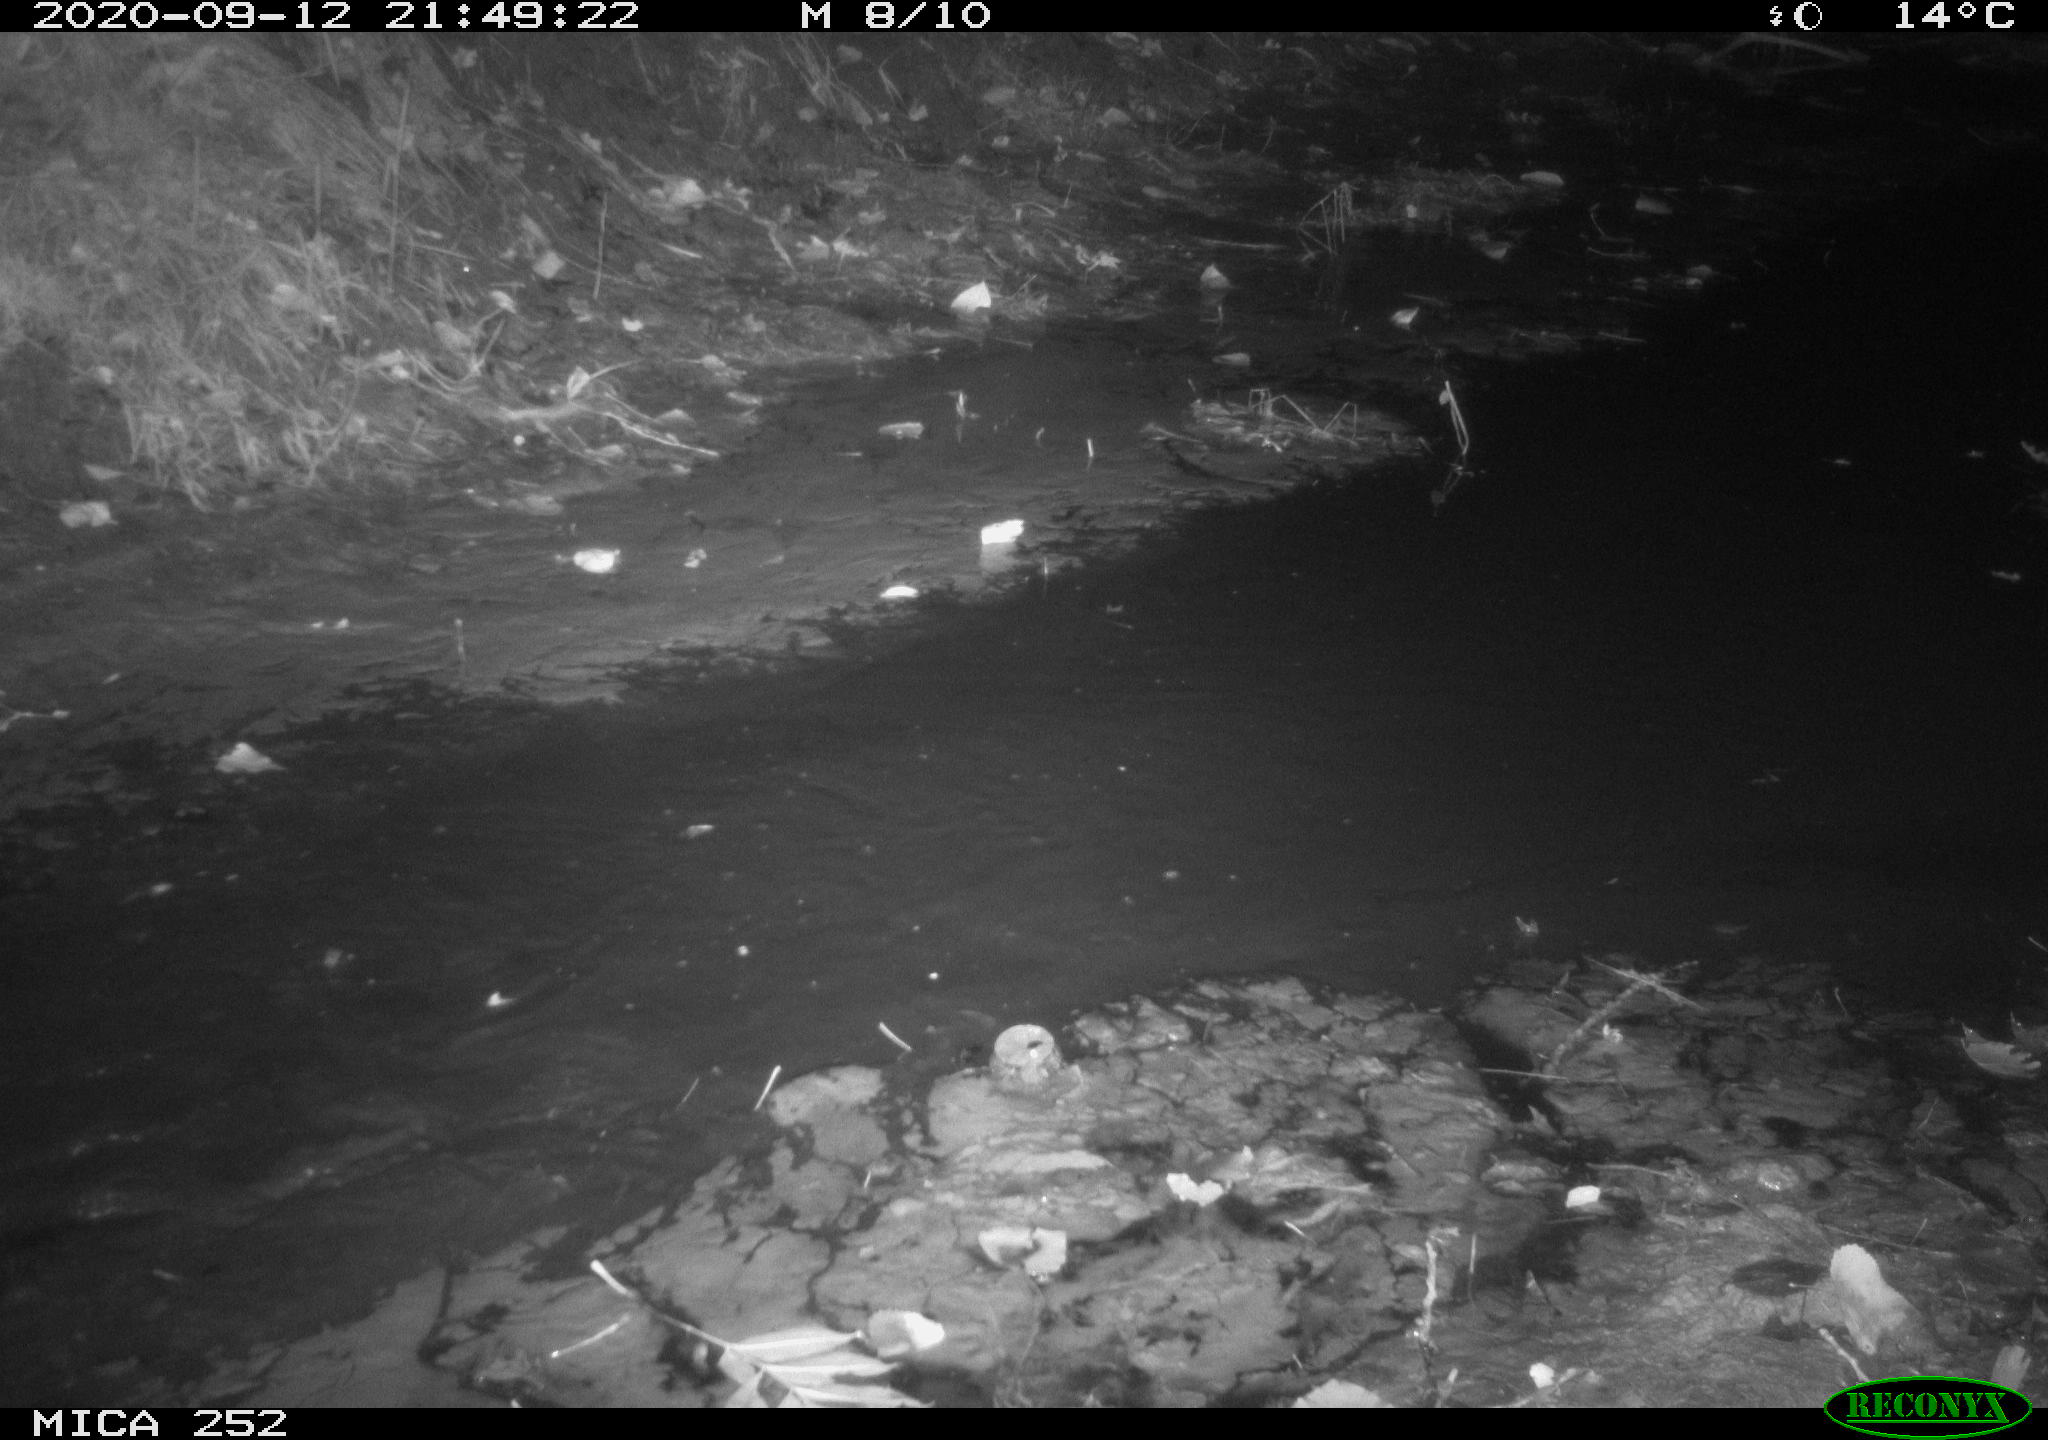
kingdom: Animalia
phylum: Chordata
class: Mammalia
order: Rodentia
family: Castoridae
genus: Castor
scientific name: Castor fiber
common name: Eurasian beaver
